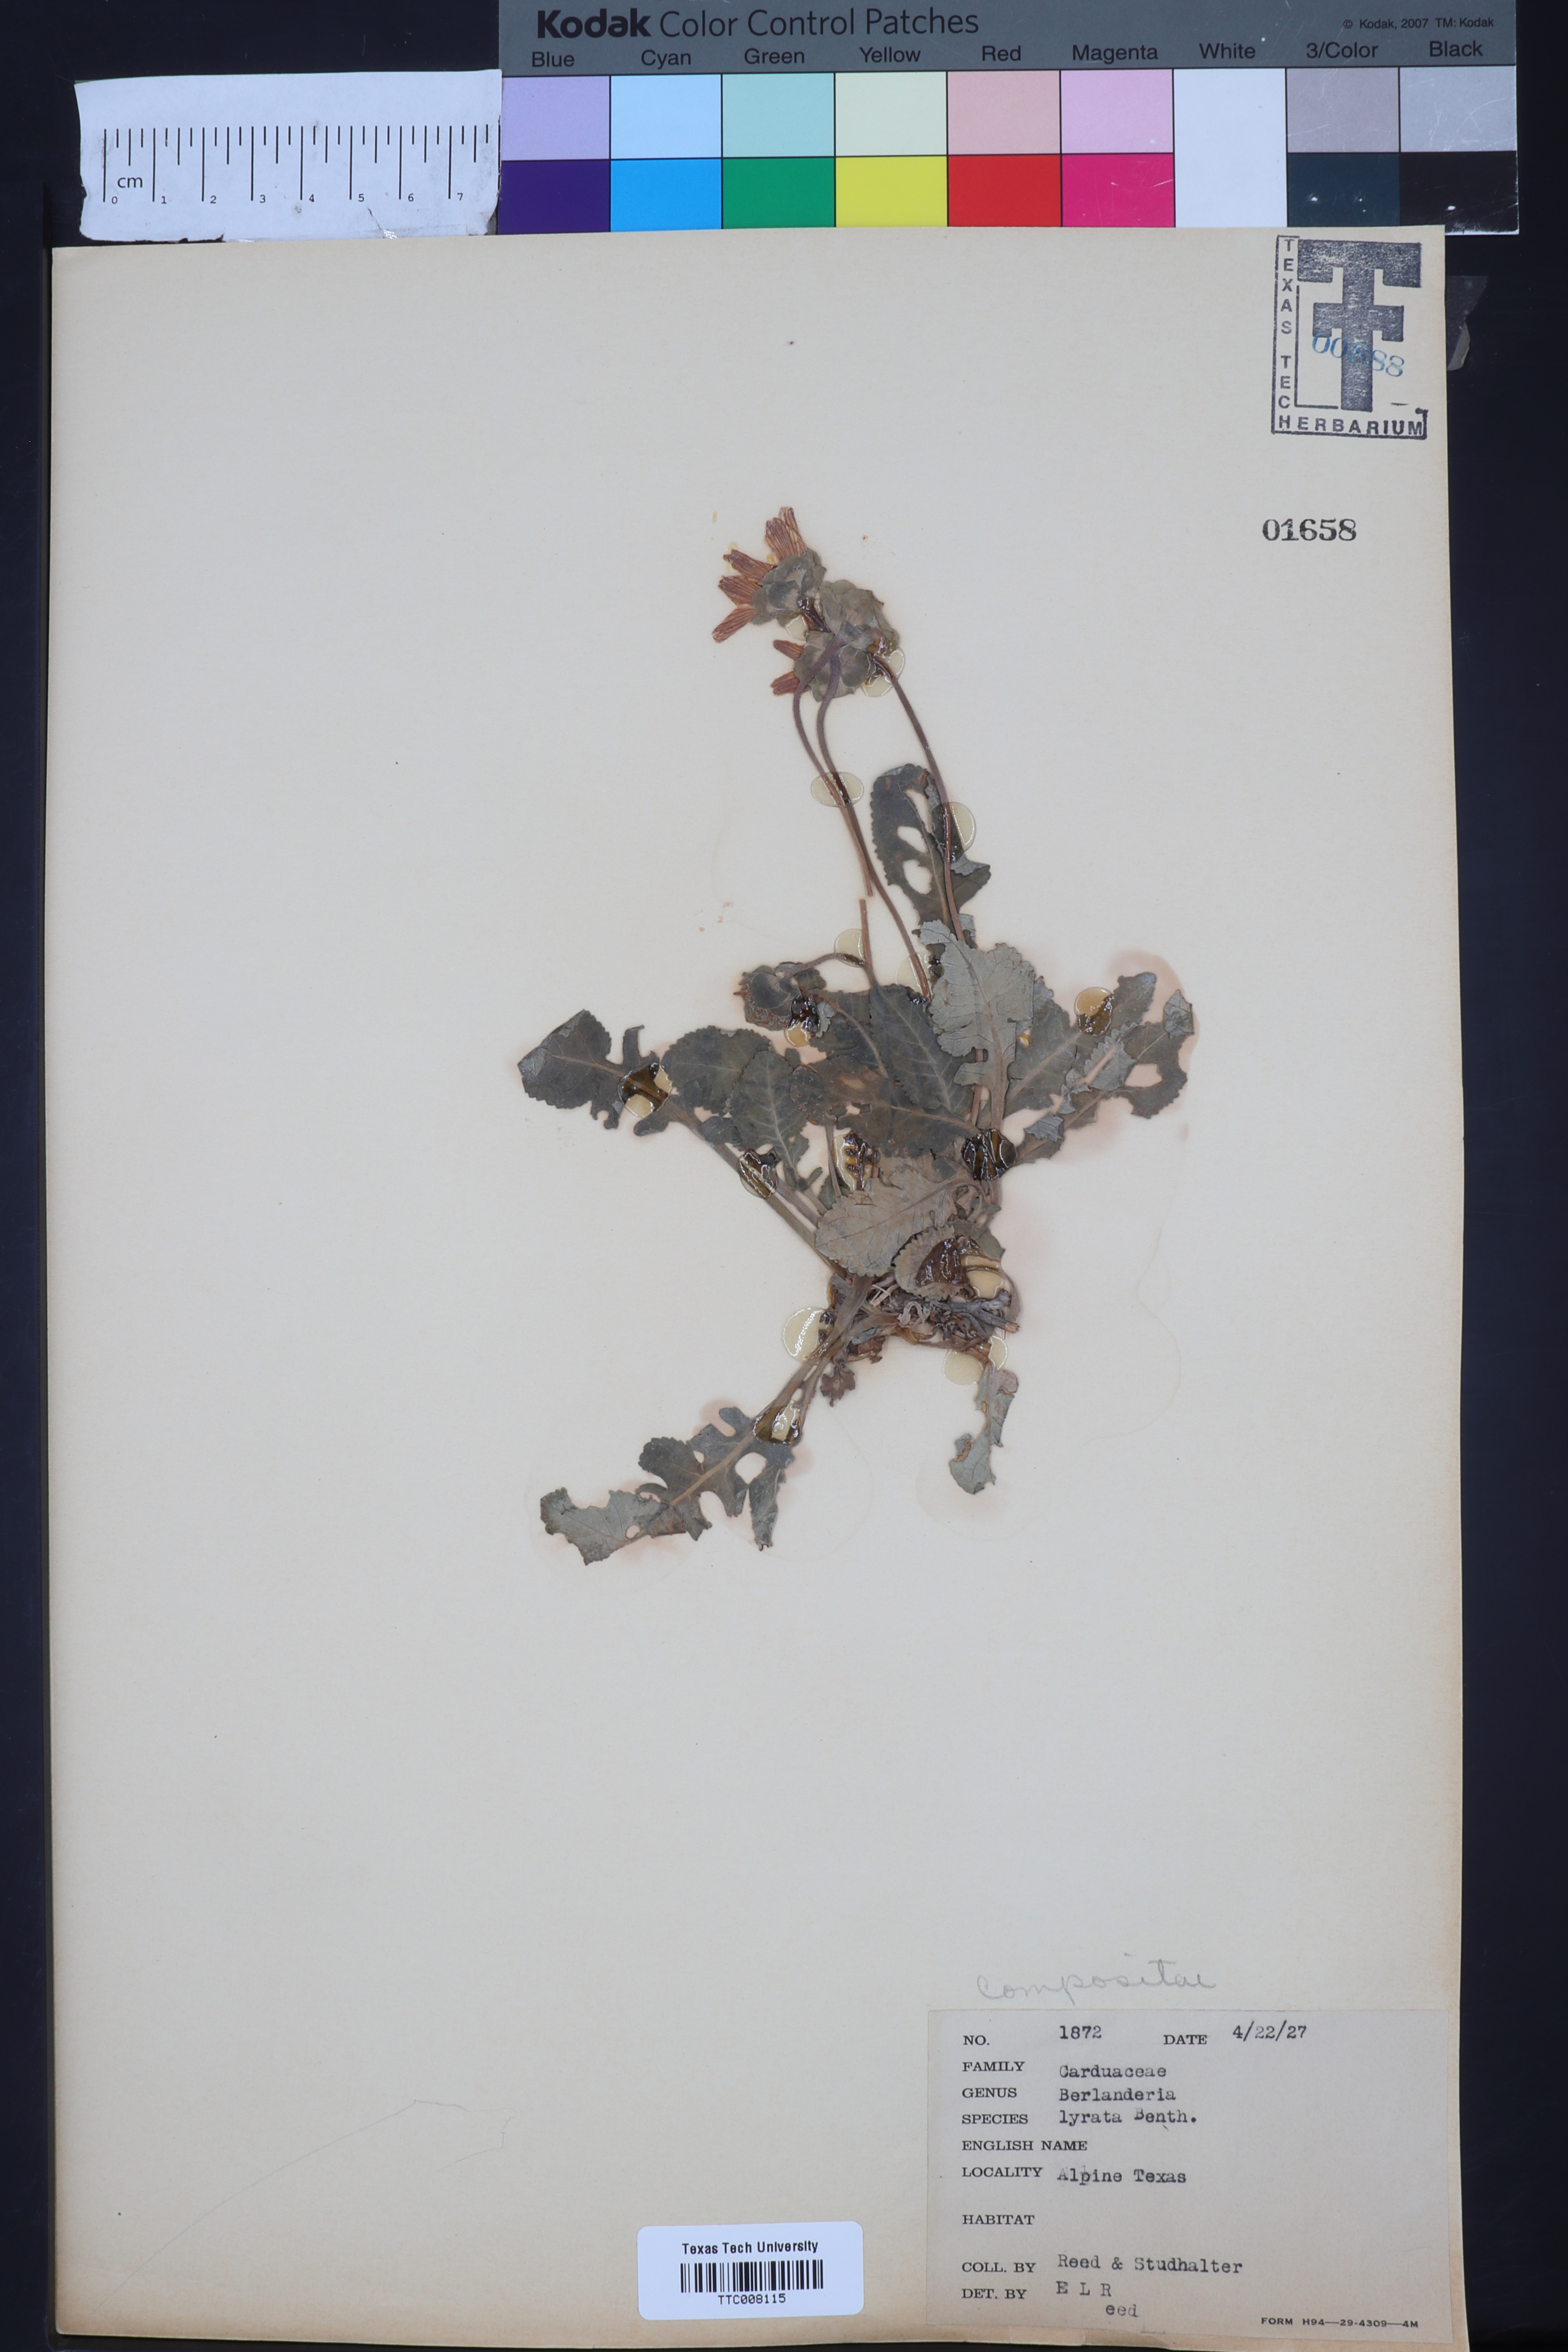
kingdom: Plantae
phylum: Tracheophyta
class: Magnoliopsida
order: Asterales
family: Asteraceae
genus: Berlandiera
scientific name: Berlandiera lyrata
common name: Chocolate-flower
